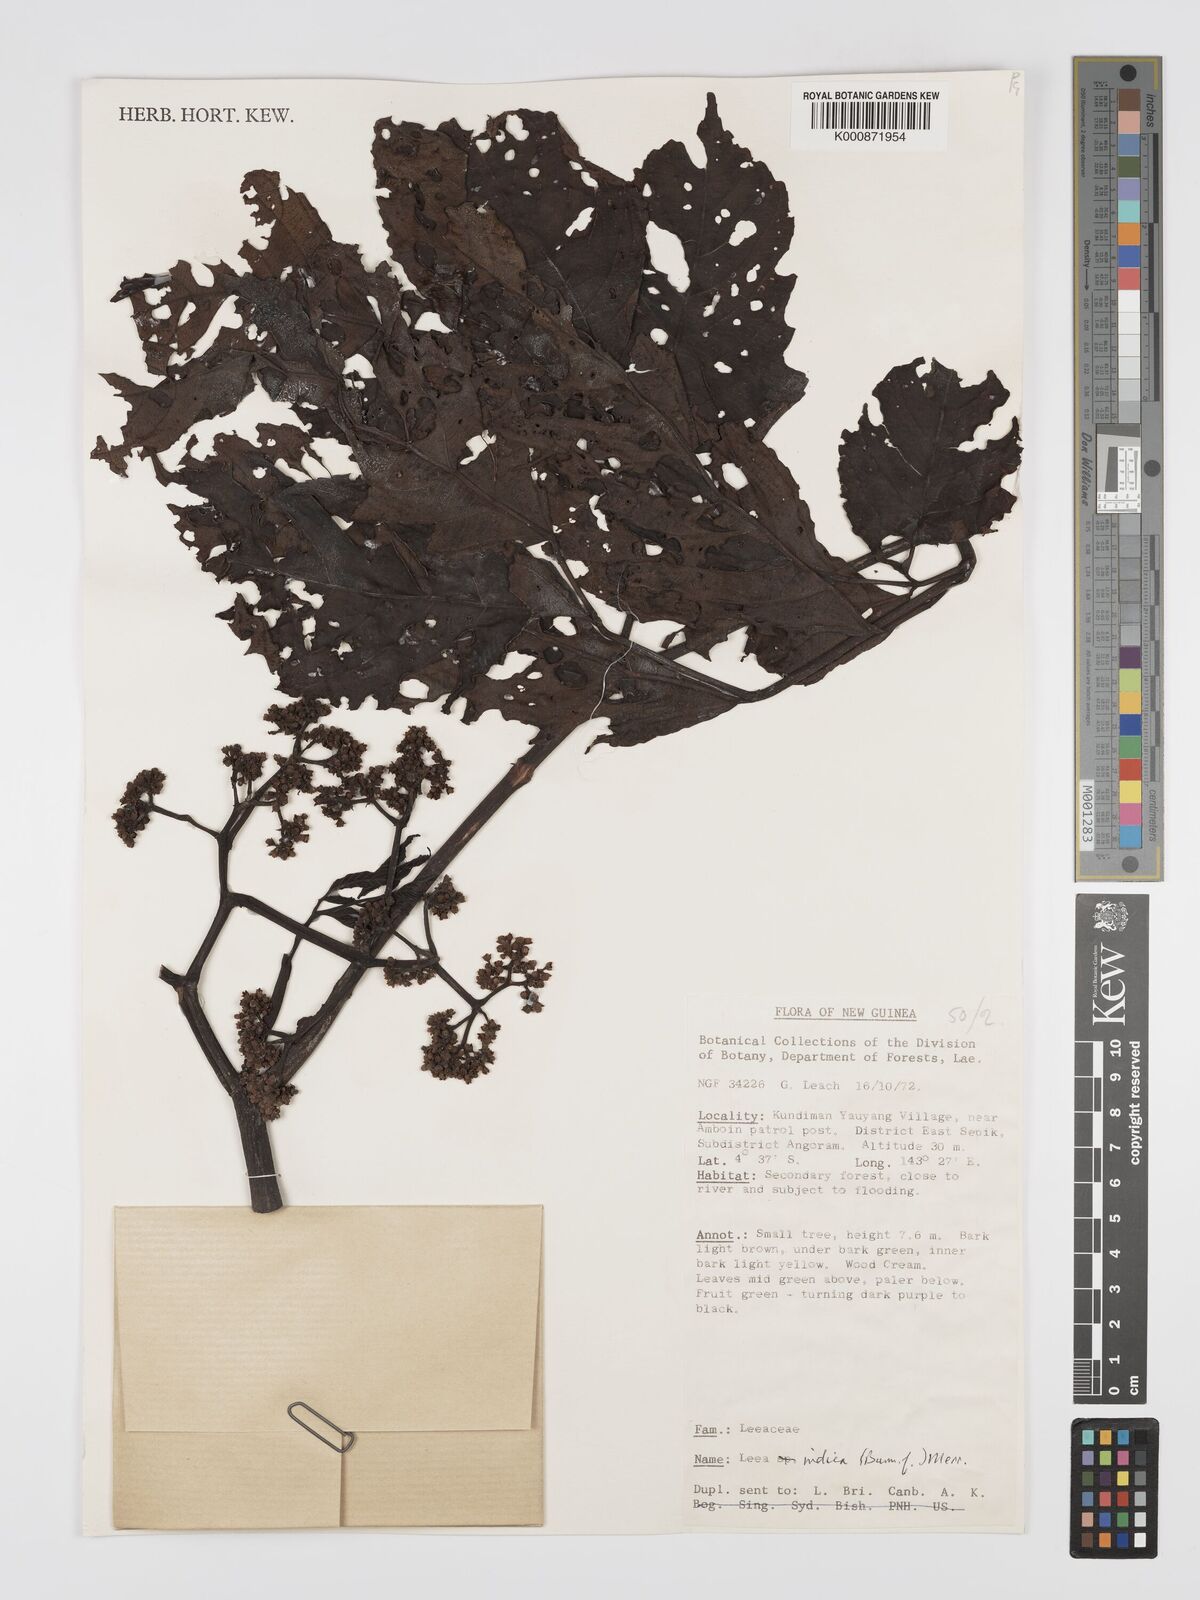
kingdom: Plantae
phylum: Tracheophyta
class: Magnoliopsida
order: Vitales
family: Vitaceae
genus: Leea
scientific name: Leea indica
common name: Bandicoot-berry
